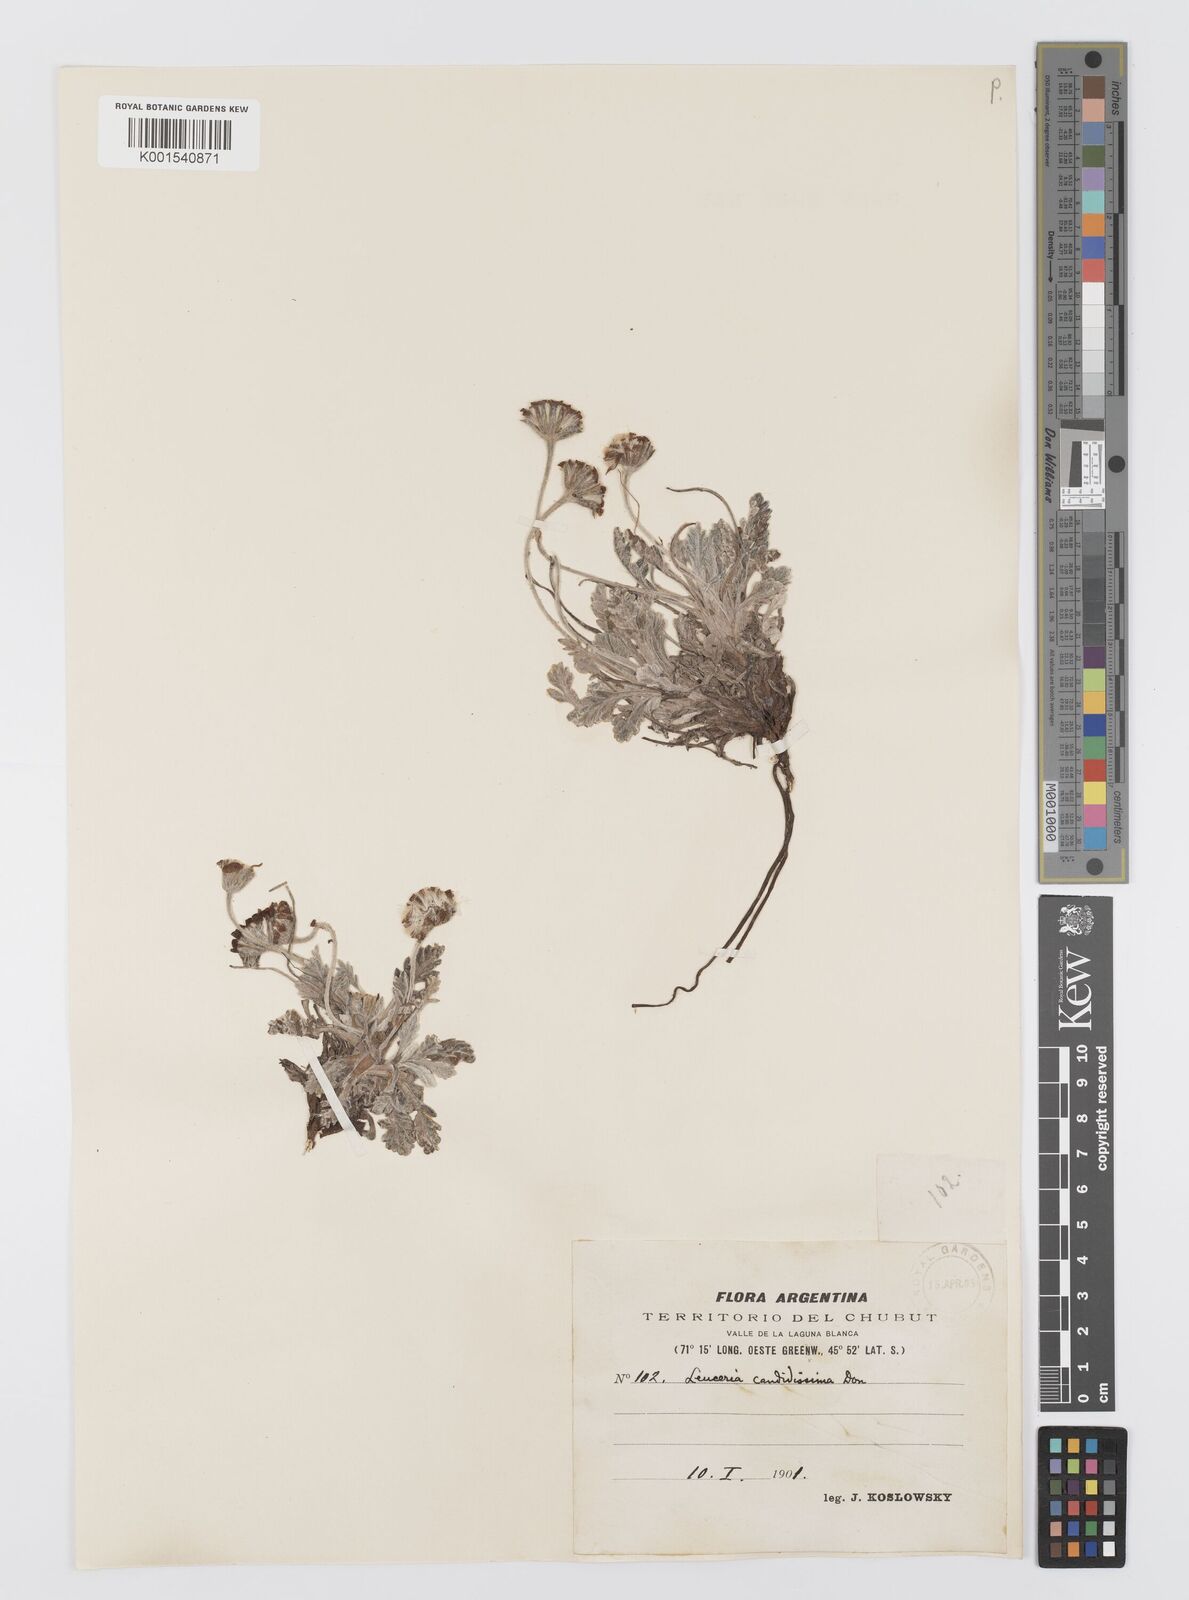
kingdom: Plantae
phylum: Tracheophyta
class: Magnoliopsida
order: Asterales
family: Asteraceae
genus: Leucheria
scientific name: Leucheria candidissima
